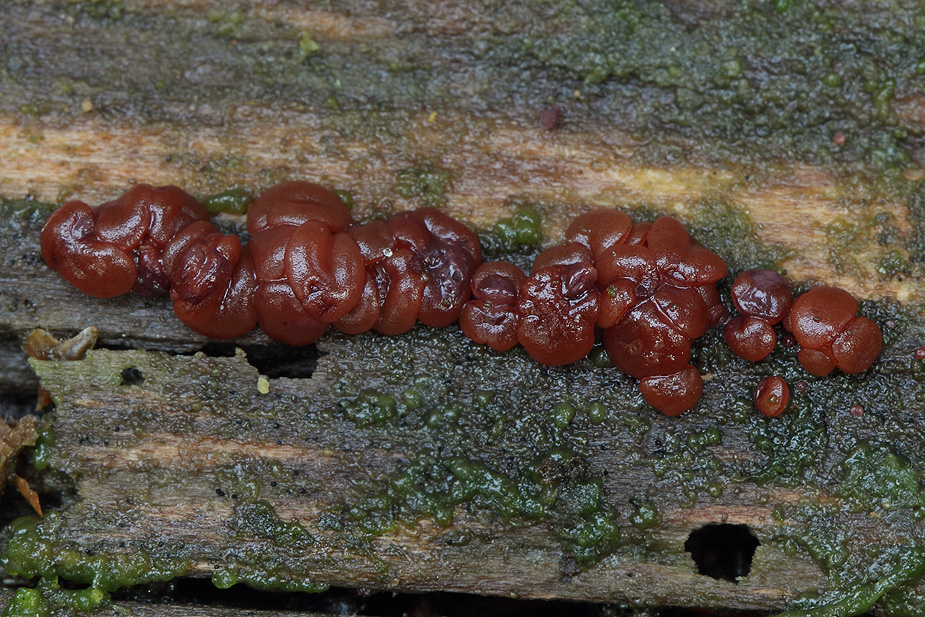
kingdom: Fungi
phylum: Ascomycota
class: Leotiomycetes
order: Helotiales
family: Gelatinodiscaceae
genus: Ascocoryne
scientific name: Ascocoryne inflata
